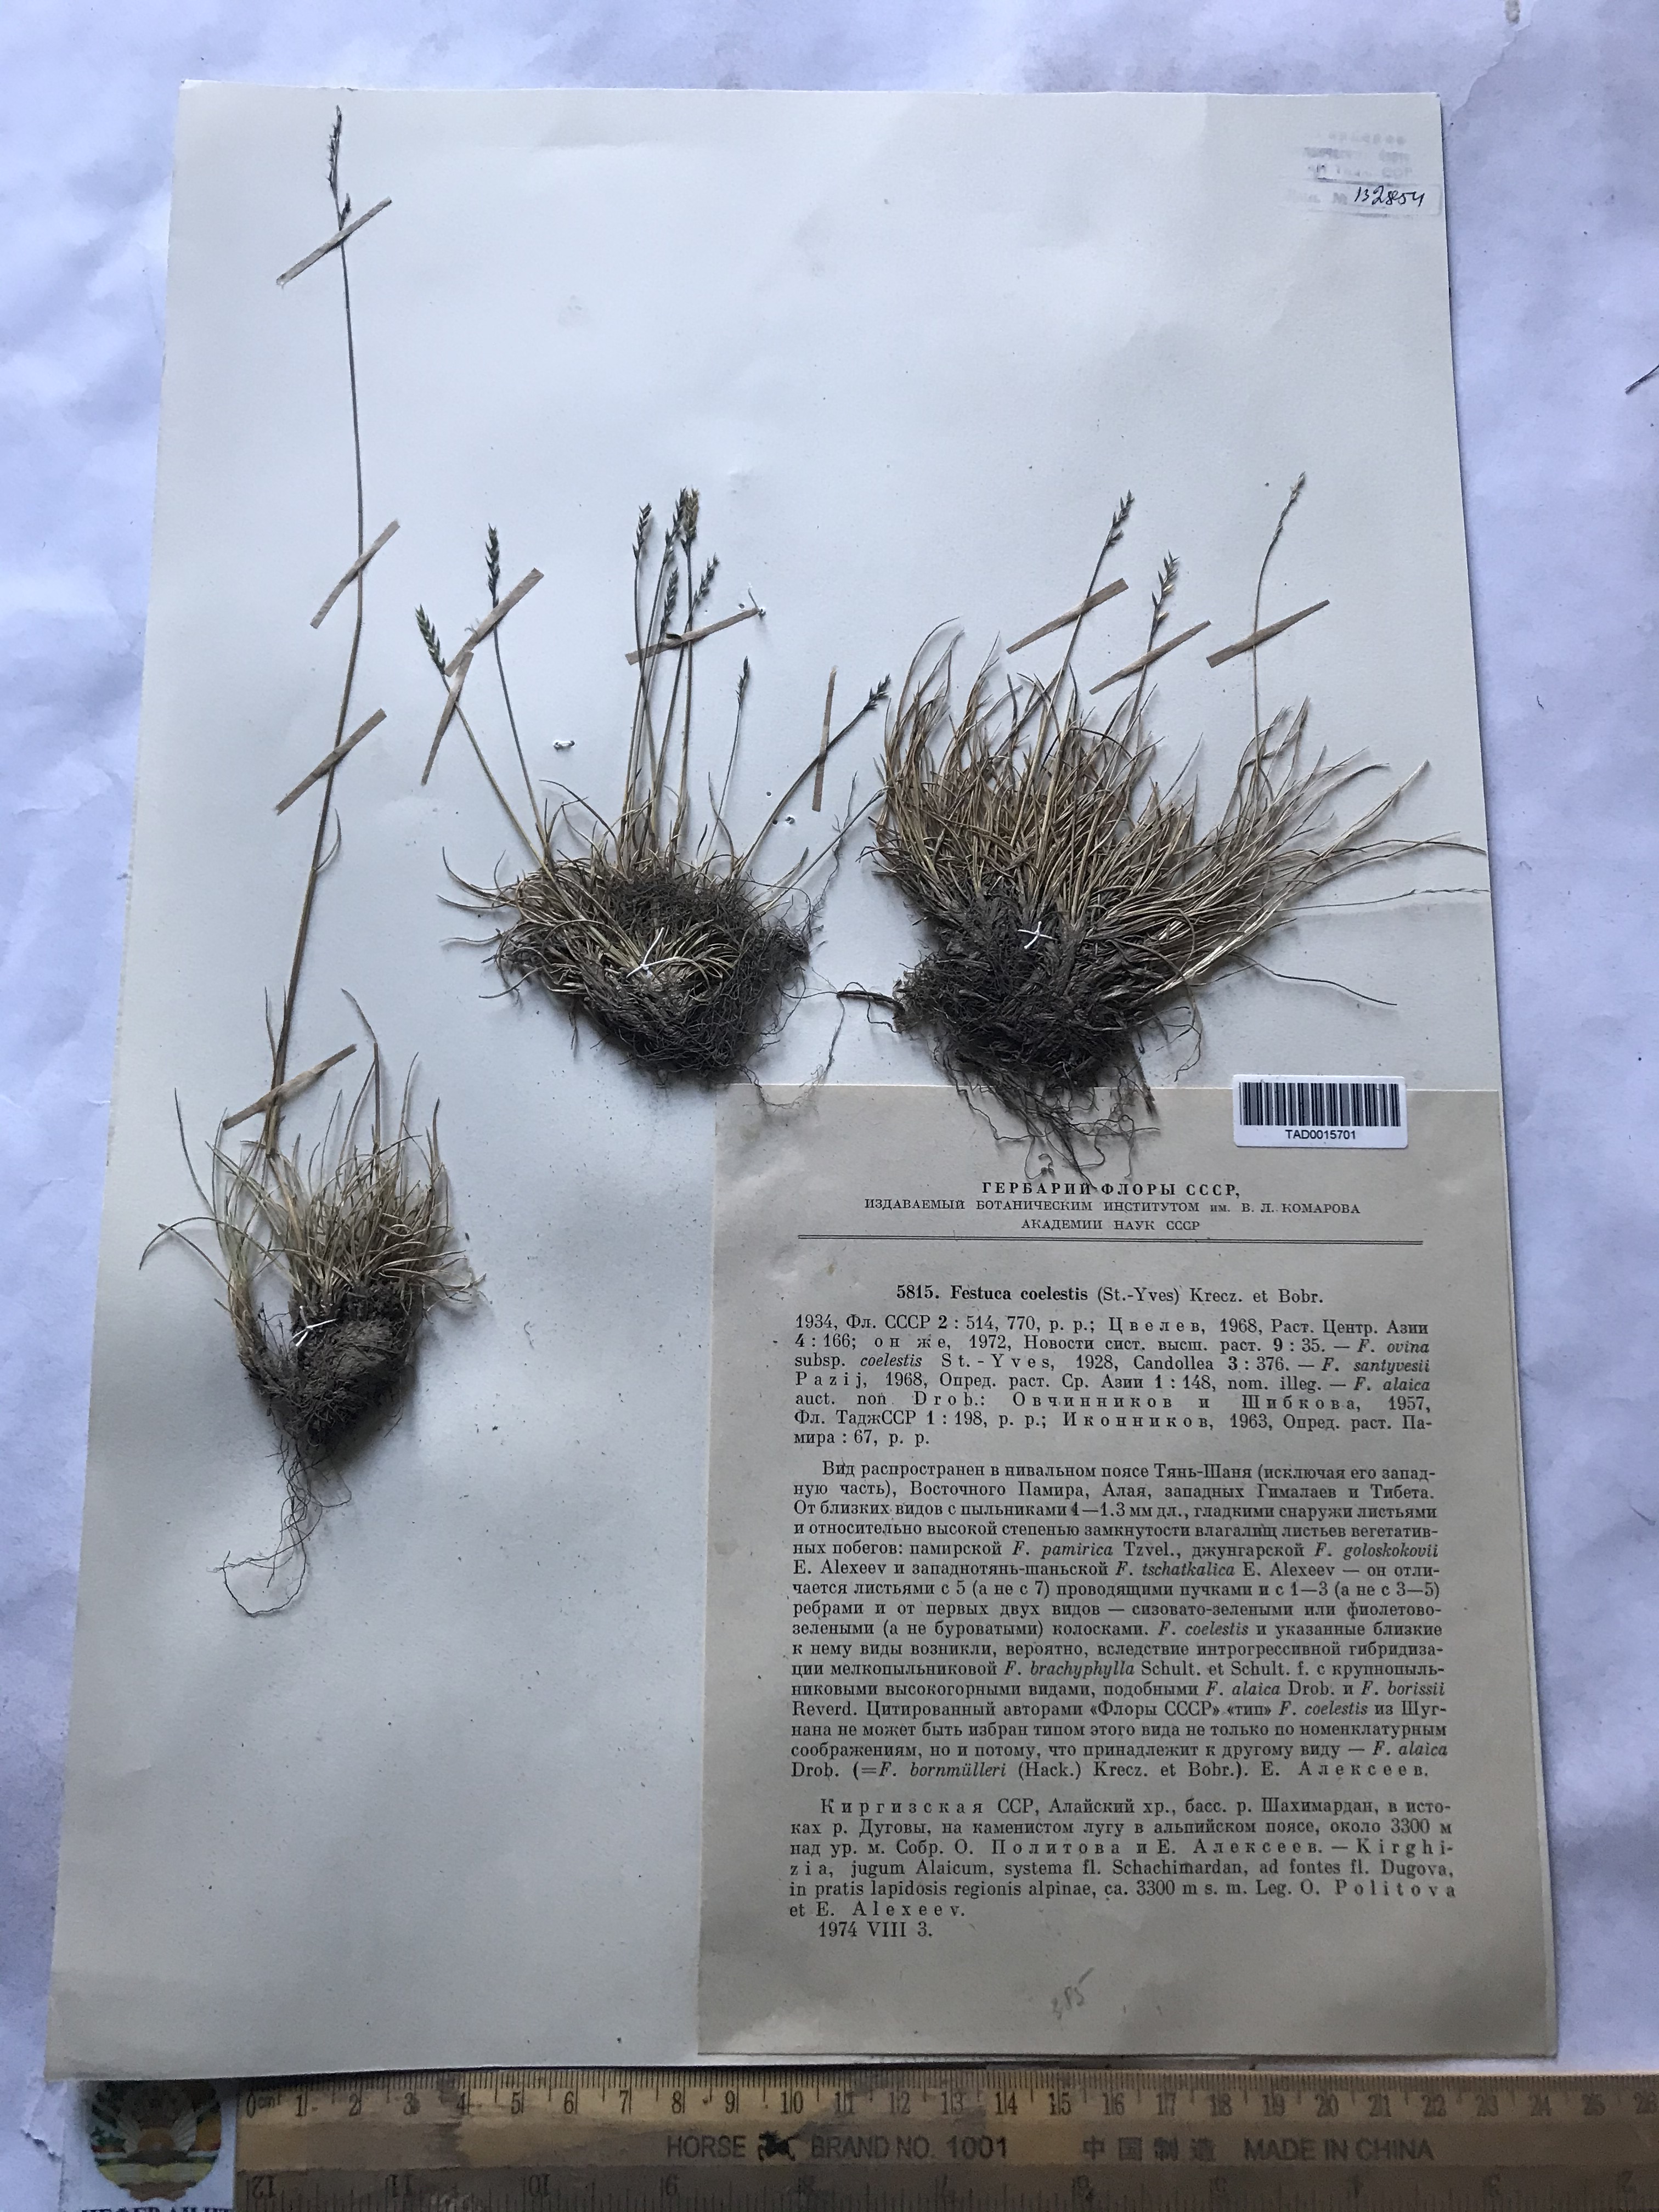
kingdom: Plantae
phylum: Tracheophyta
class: Liliopsida
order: Poales
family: Poaceae
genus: Festuca
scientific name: Festuca coelestis
